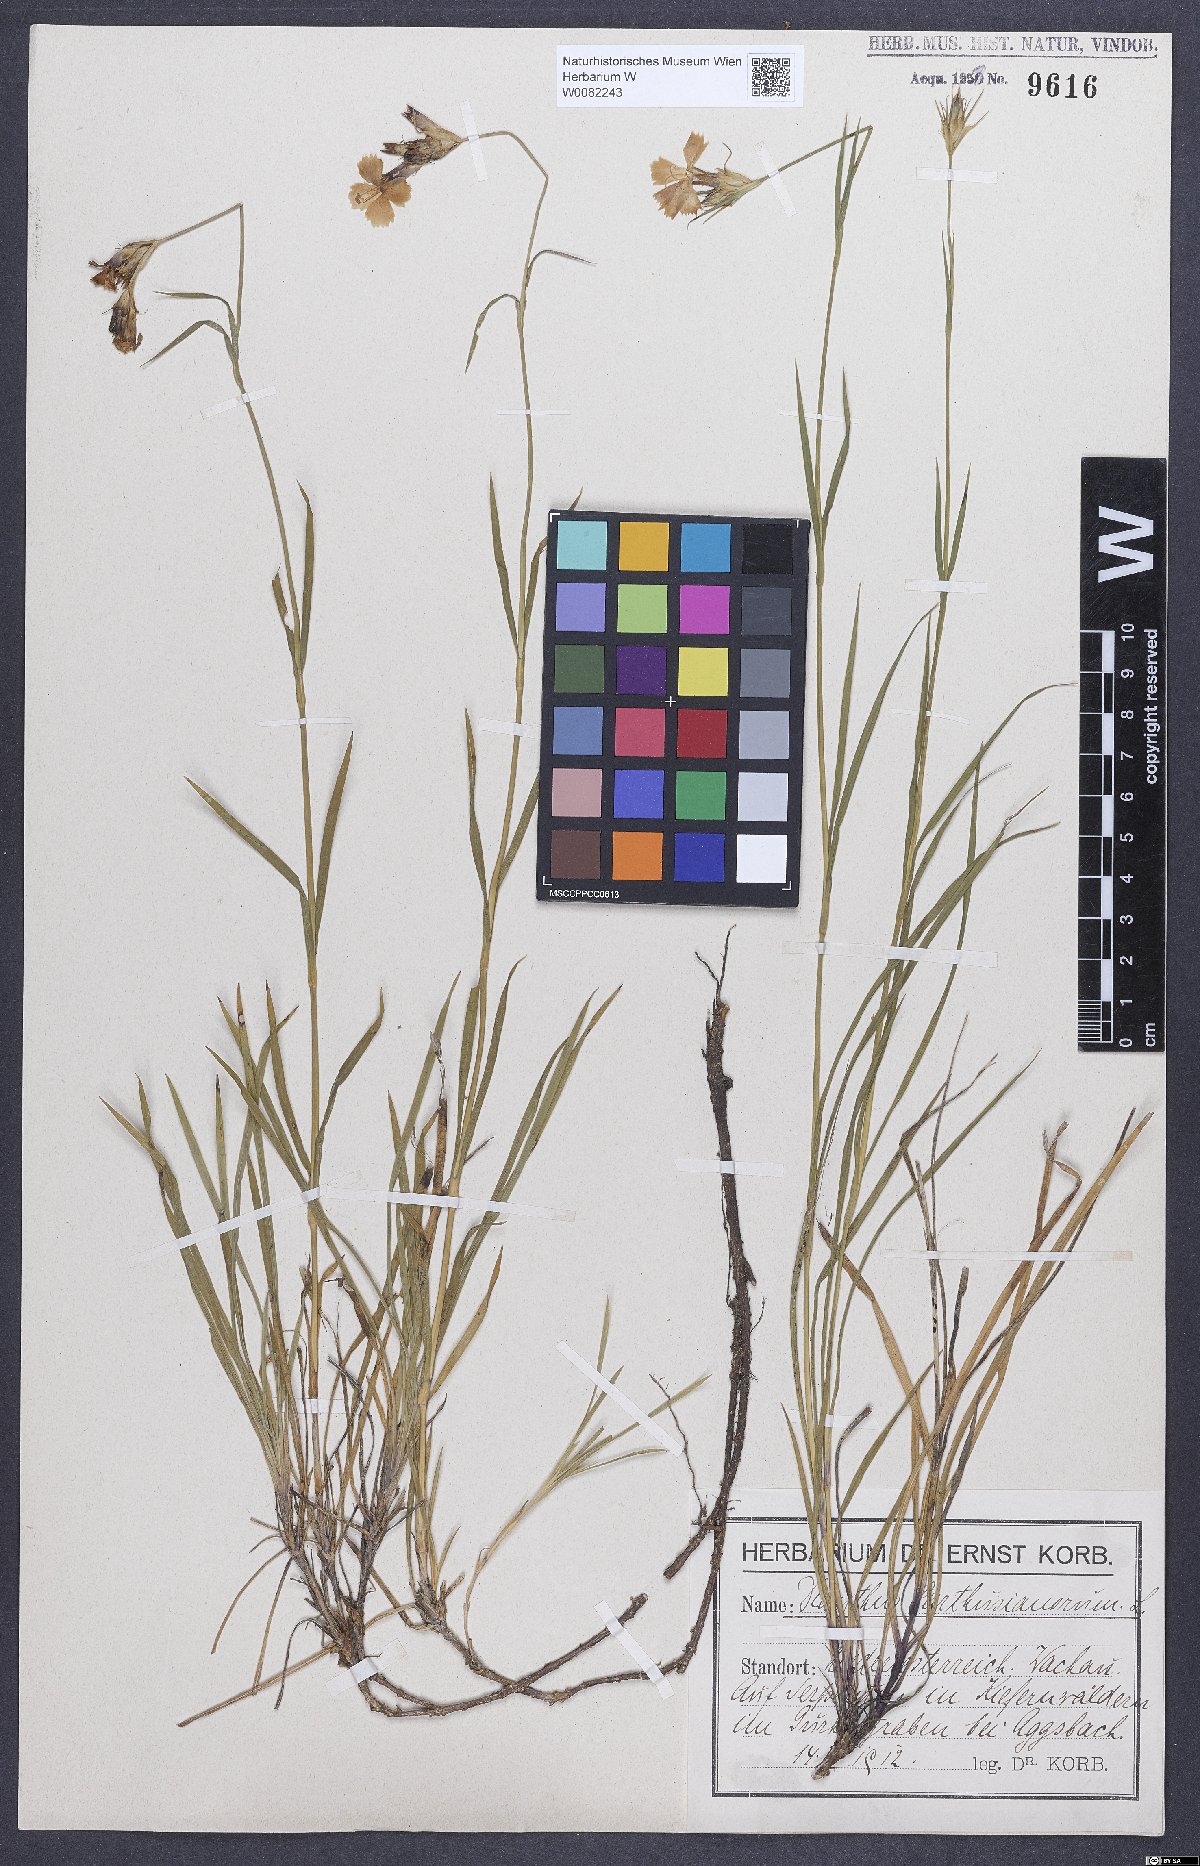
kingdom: Plantae
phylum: Tracheophyta
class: Magnoliopsida
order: Caryophyllales
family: Caryophyllaceae
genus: Dianthus
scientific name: Dianthus carthusianorum
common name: Carthusian pink
